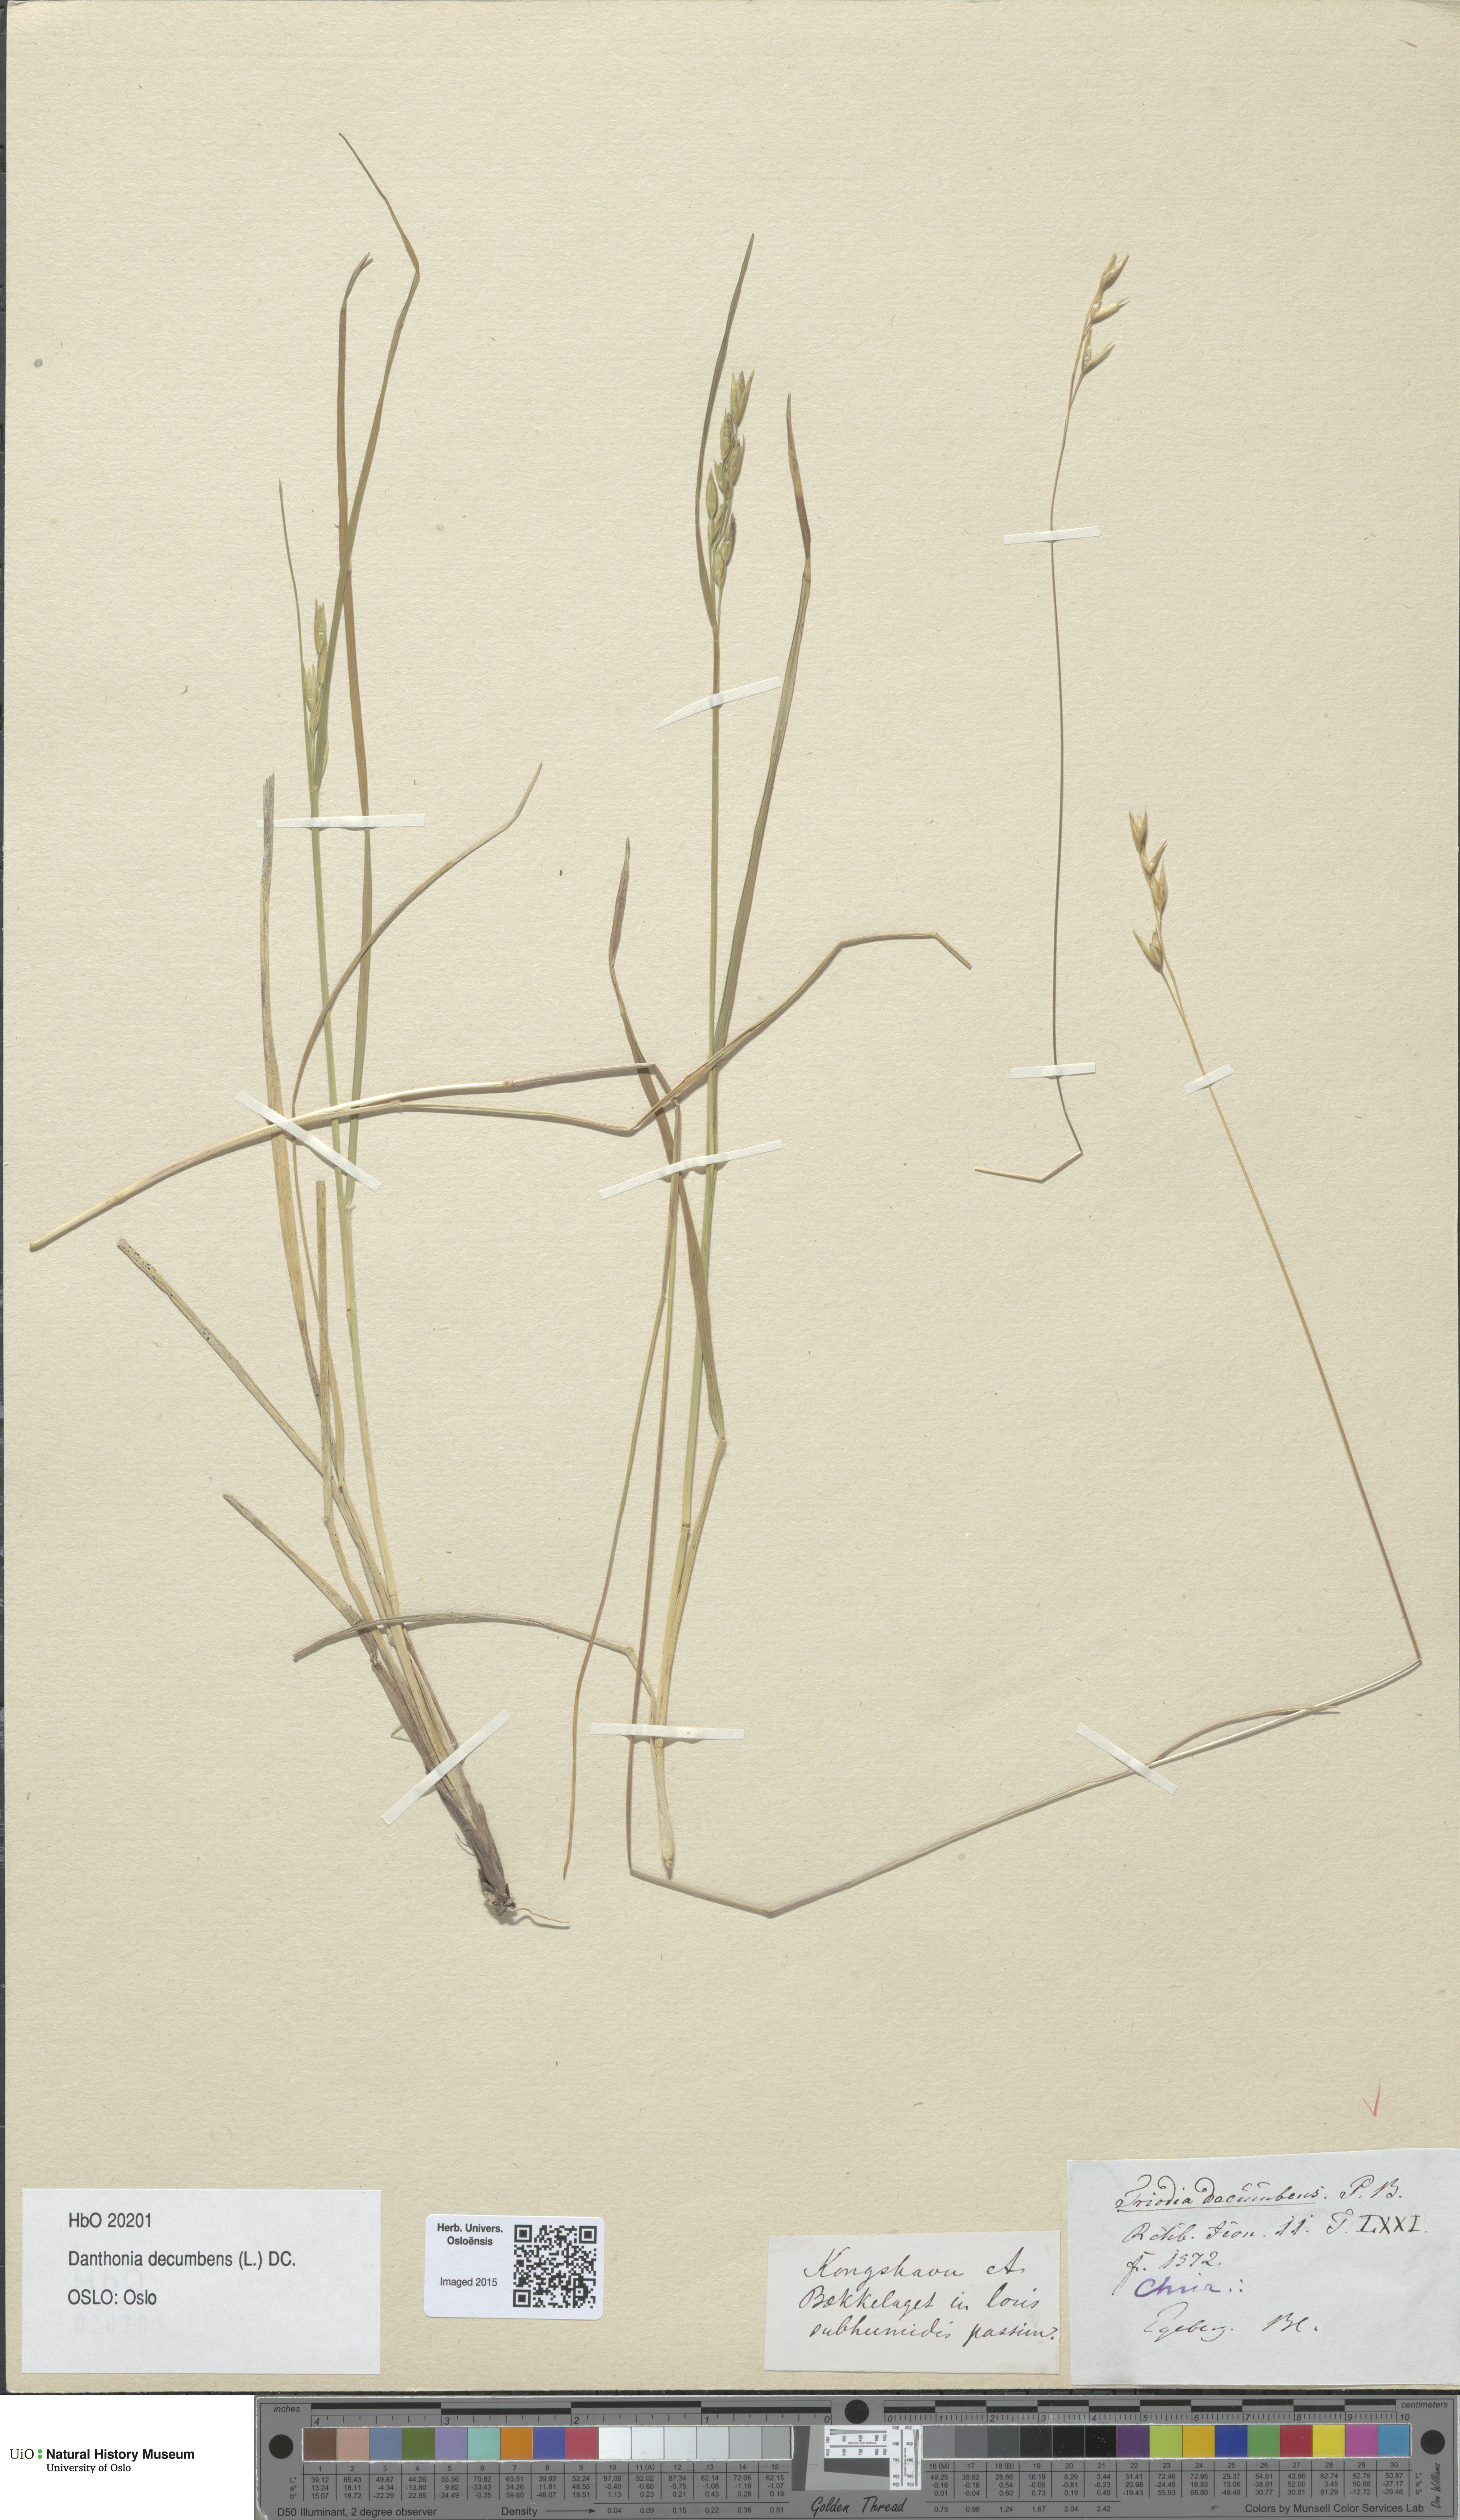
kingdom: Plantae
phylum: Tracheophyta
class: Liliopsida
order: Poales
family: Poaceae
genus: Danthonia
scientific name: Danthonia decumbens
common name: Common heathgrass
